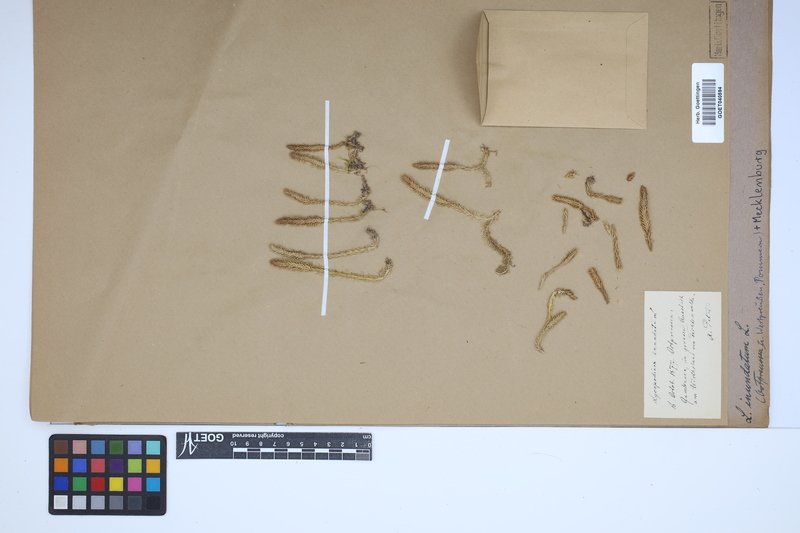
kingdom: Plantae
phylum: Tracheophyta
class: Lycopodiopsida
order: Lycopodiales
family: Lycopodiaceae
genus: Lycopodiella
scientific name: Lycopodiella inundata
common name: Marsh clubmoss
